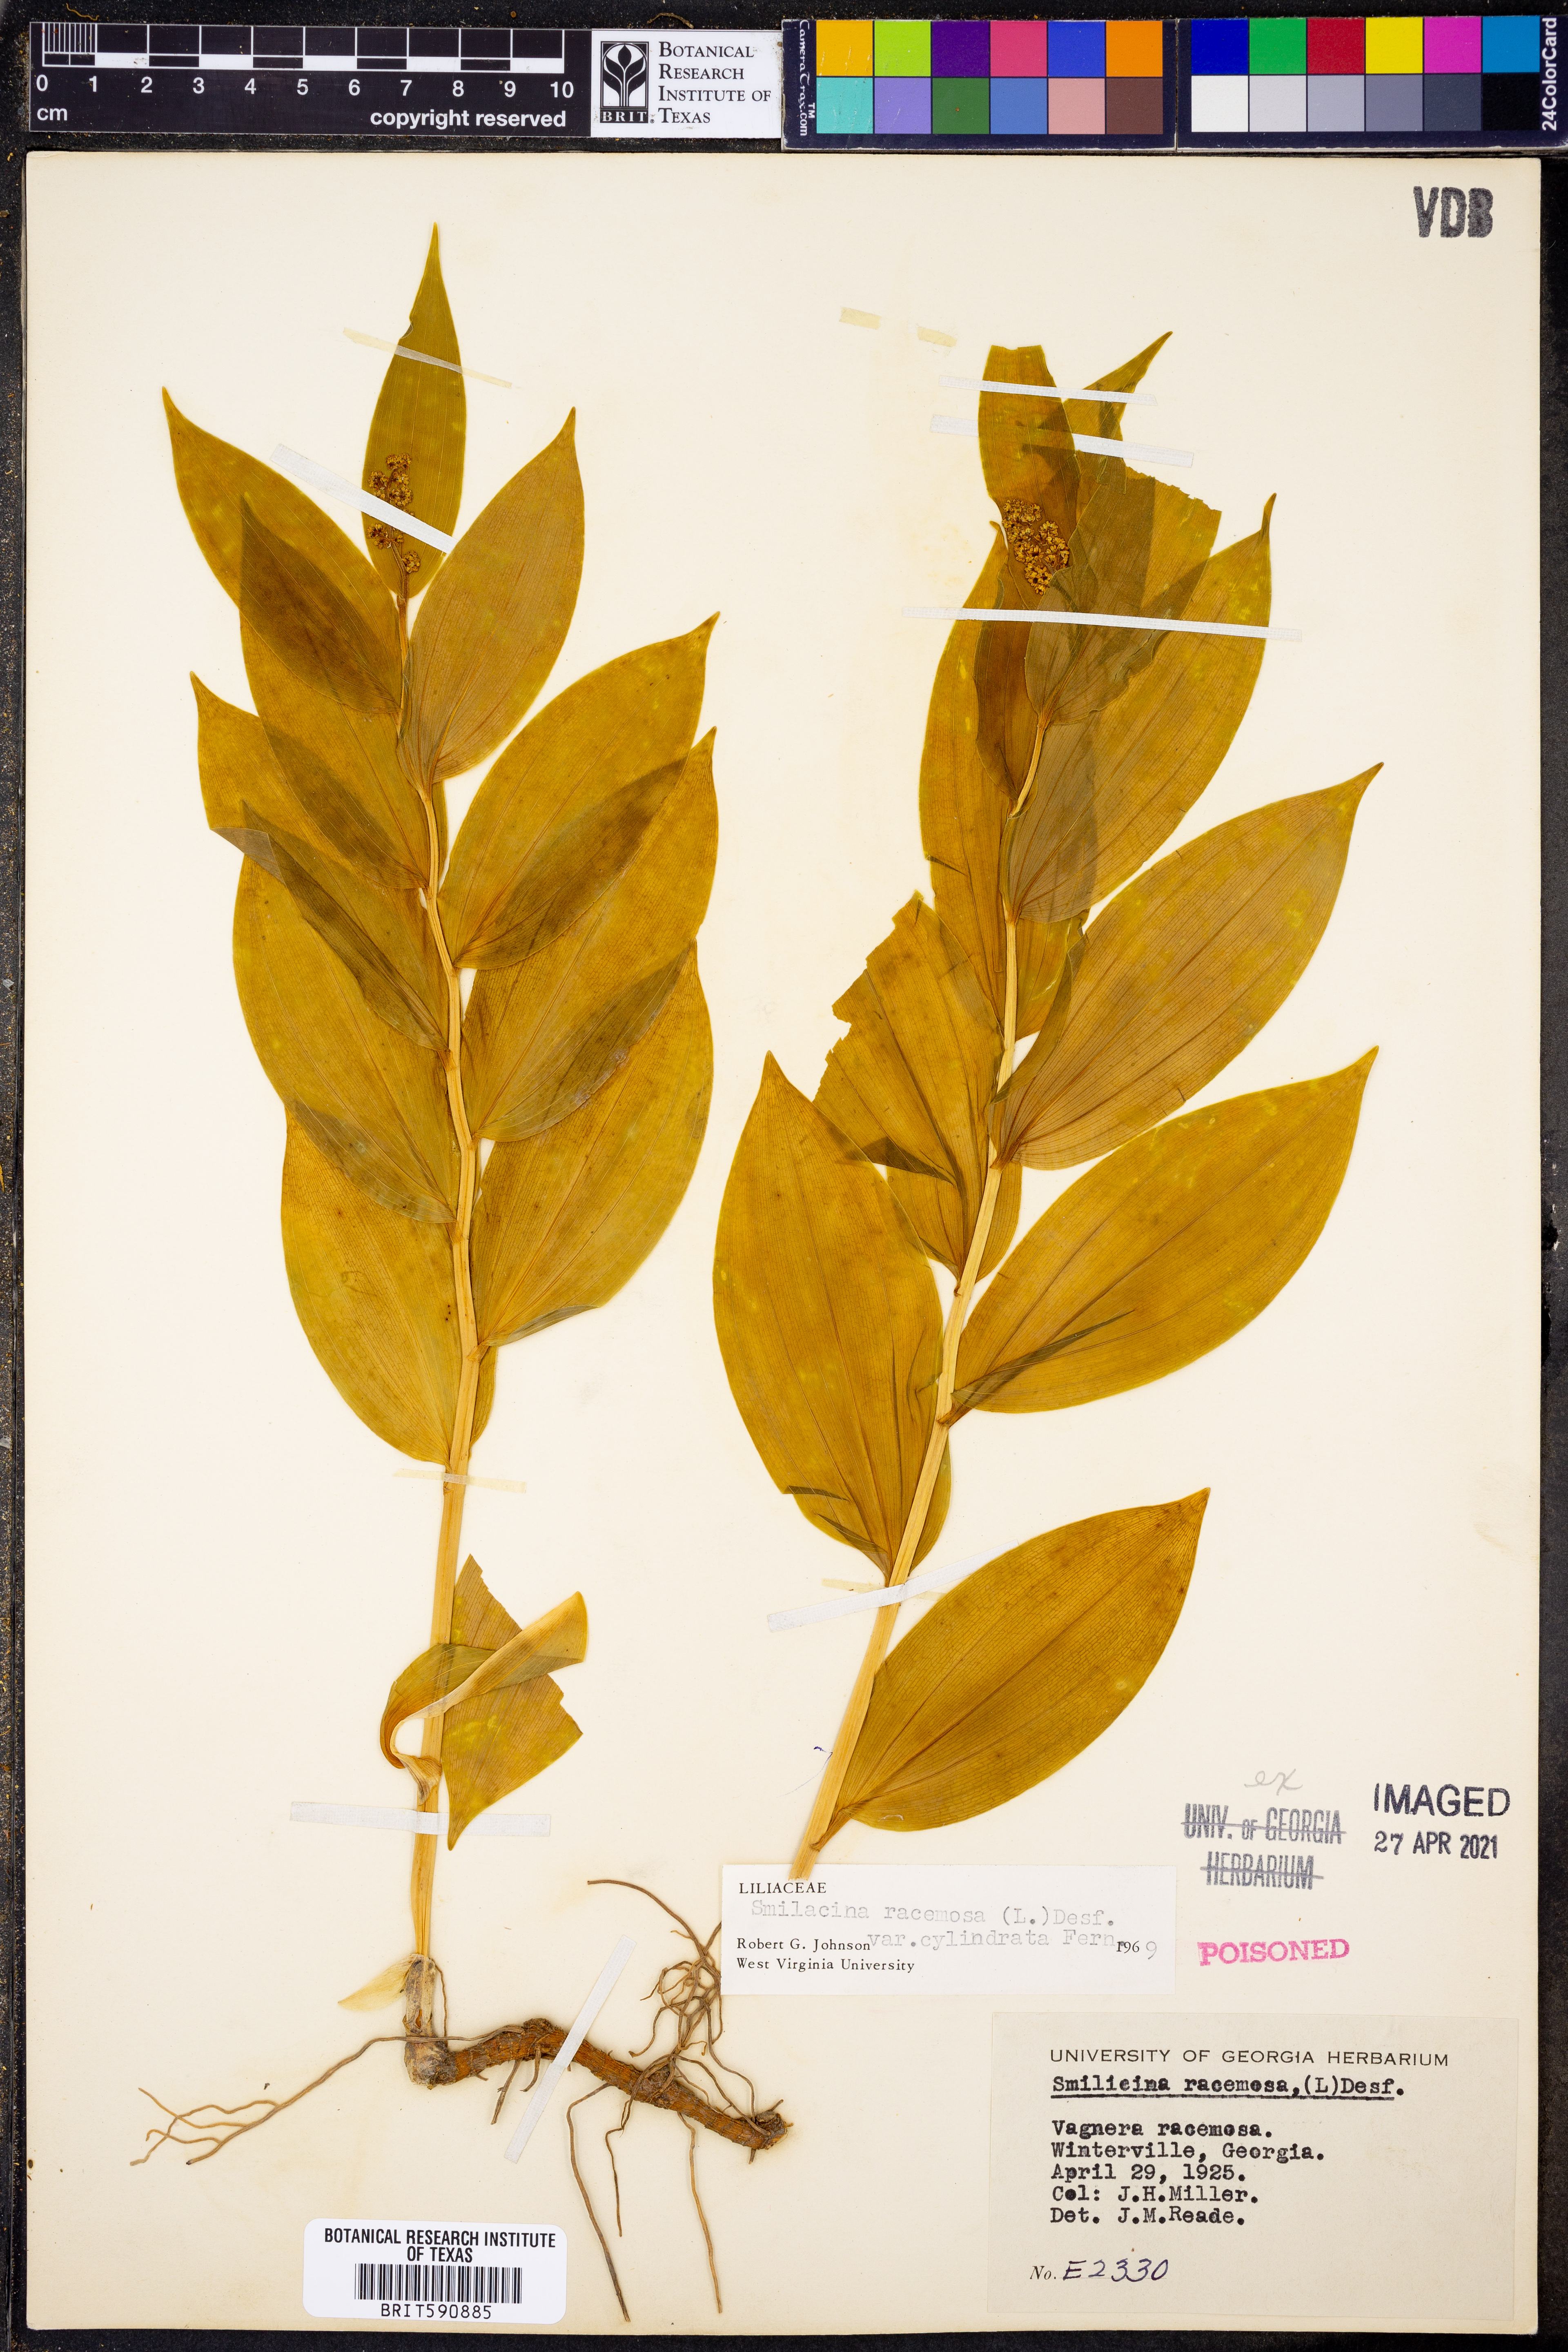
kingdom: Plantae
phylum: Tracheophyta
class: Liliopsida
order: Asparagales
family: Asparagaceae
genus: Maianthemum
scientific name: Maianthemum racemosum
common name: False spikenard
